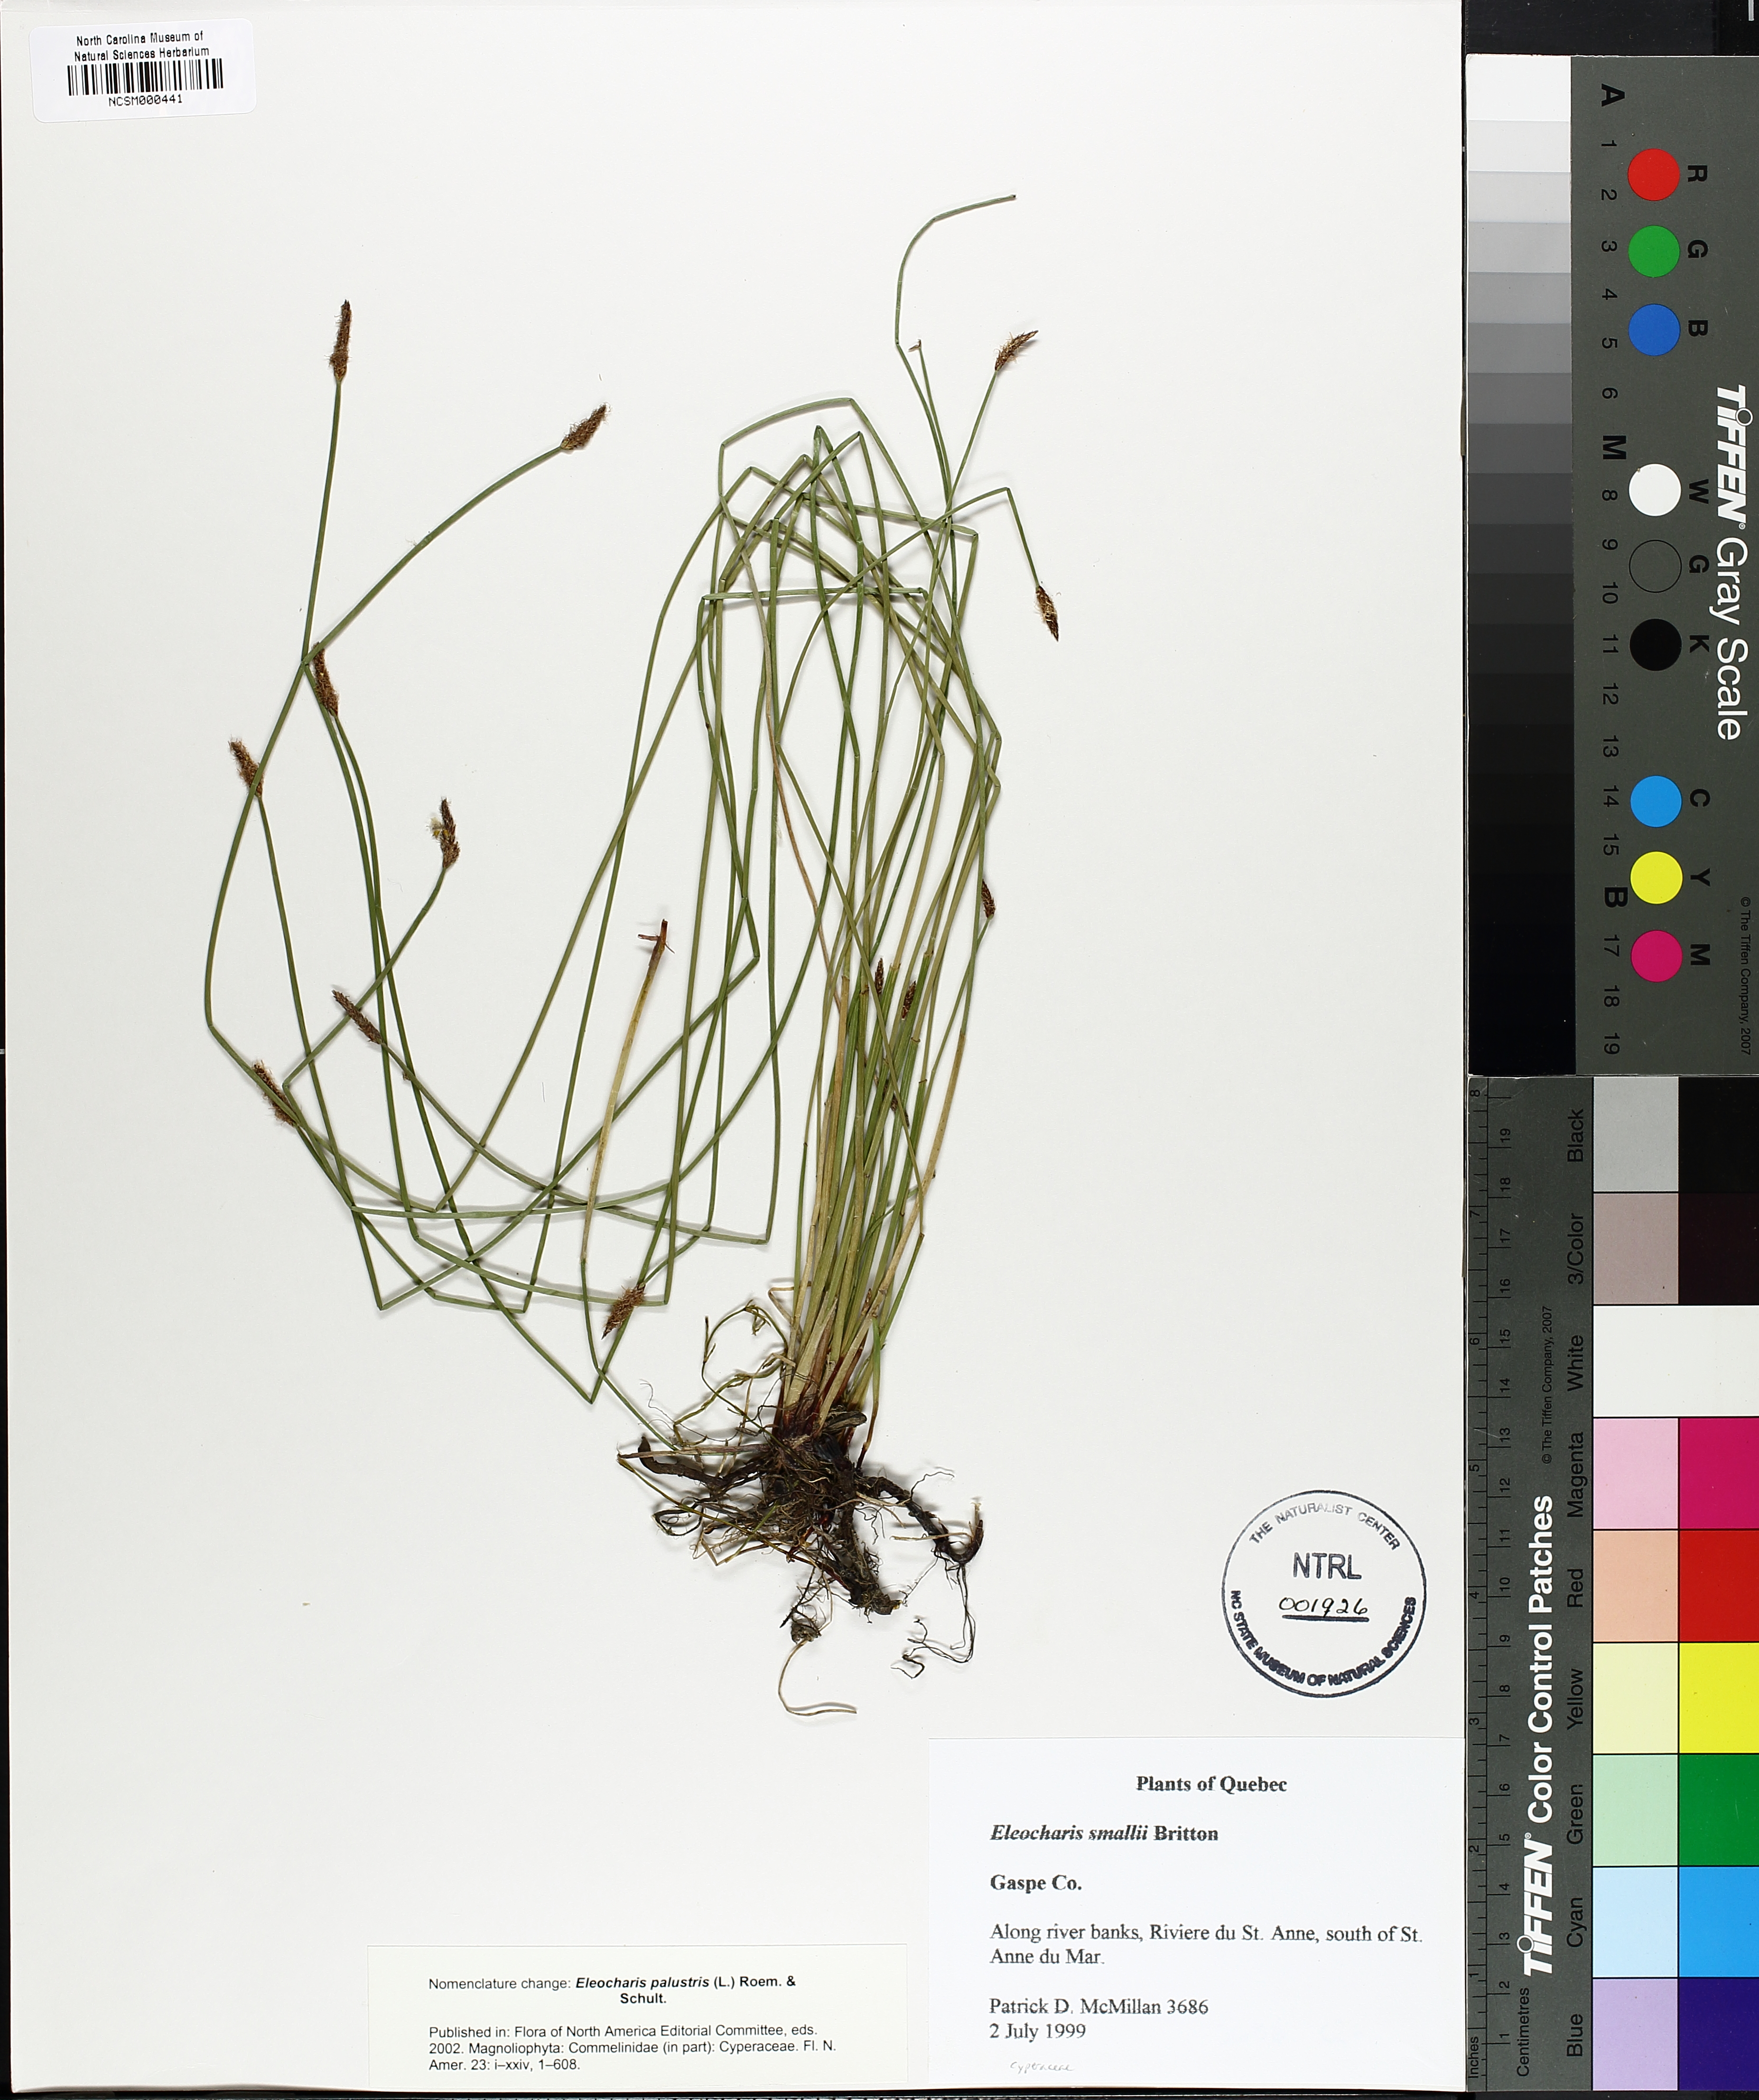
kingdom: Plantae
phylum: Tracheophyta
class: Liliopsida
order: Poales
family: Cyperaceae
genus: Eleocharis
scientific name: Eleocharis palustris
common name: Common spike-rush
